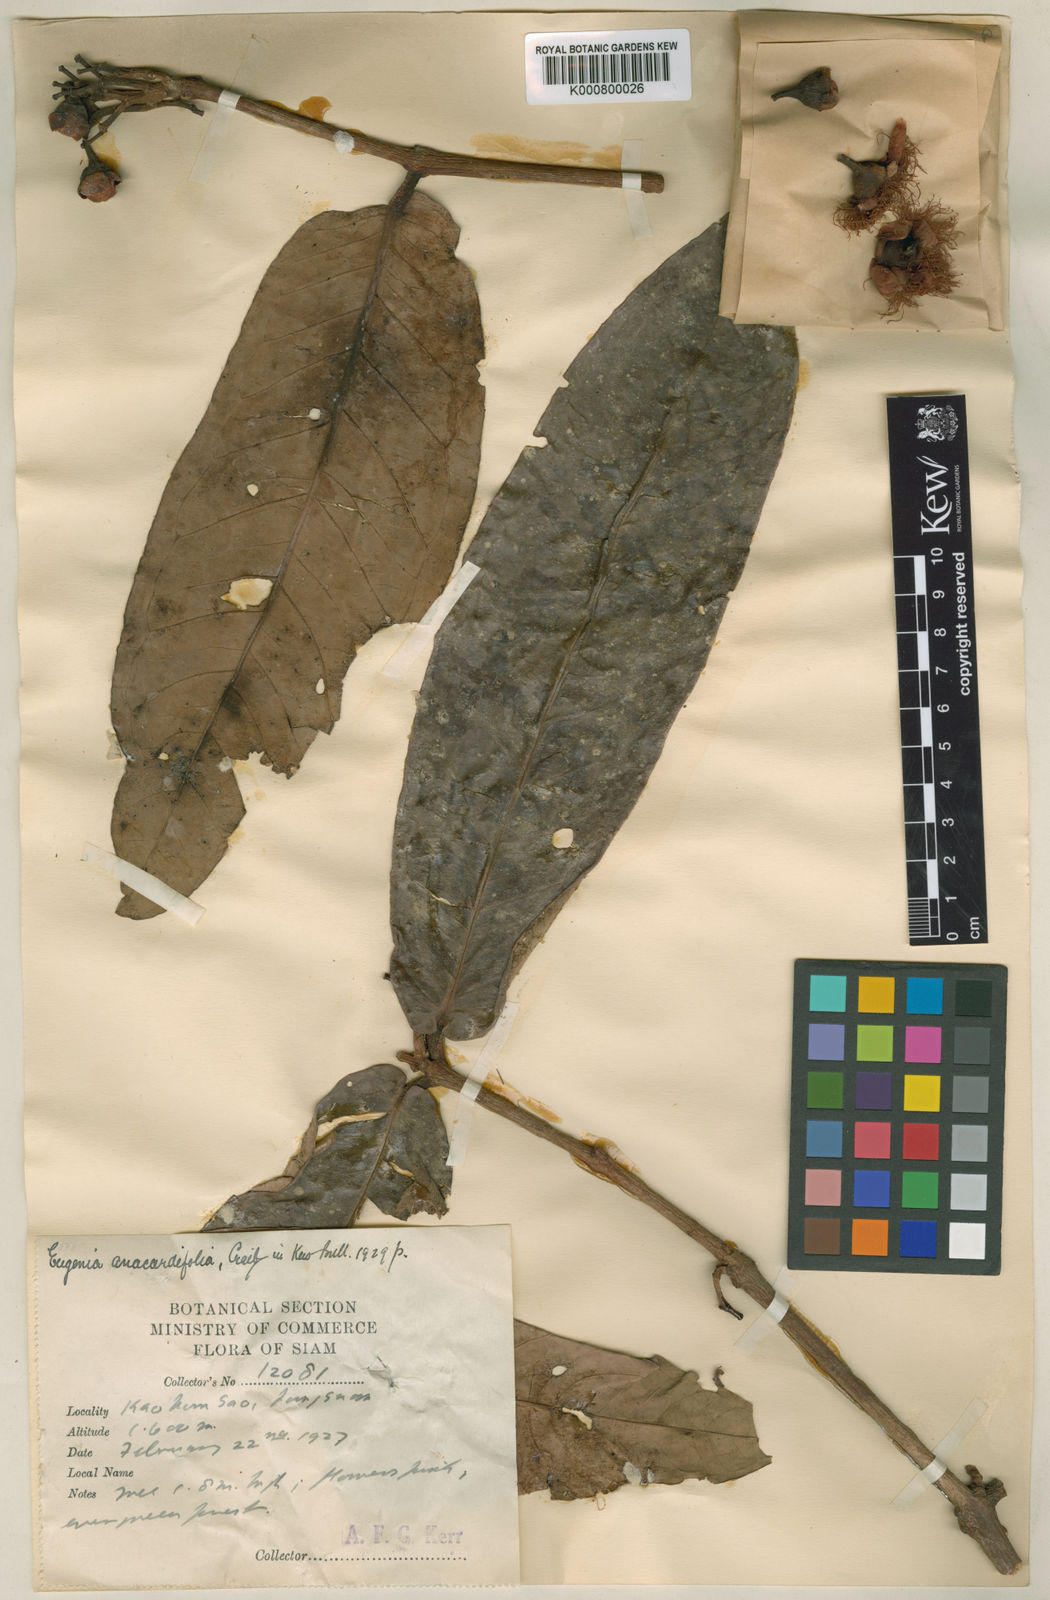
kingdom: Plantae
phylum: Tracheophyta
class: Magnoliopsida
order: Myrtales
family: Myrtaceae
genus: Syzygium
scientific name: Syzygium anacardiifolium
